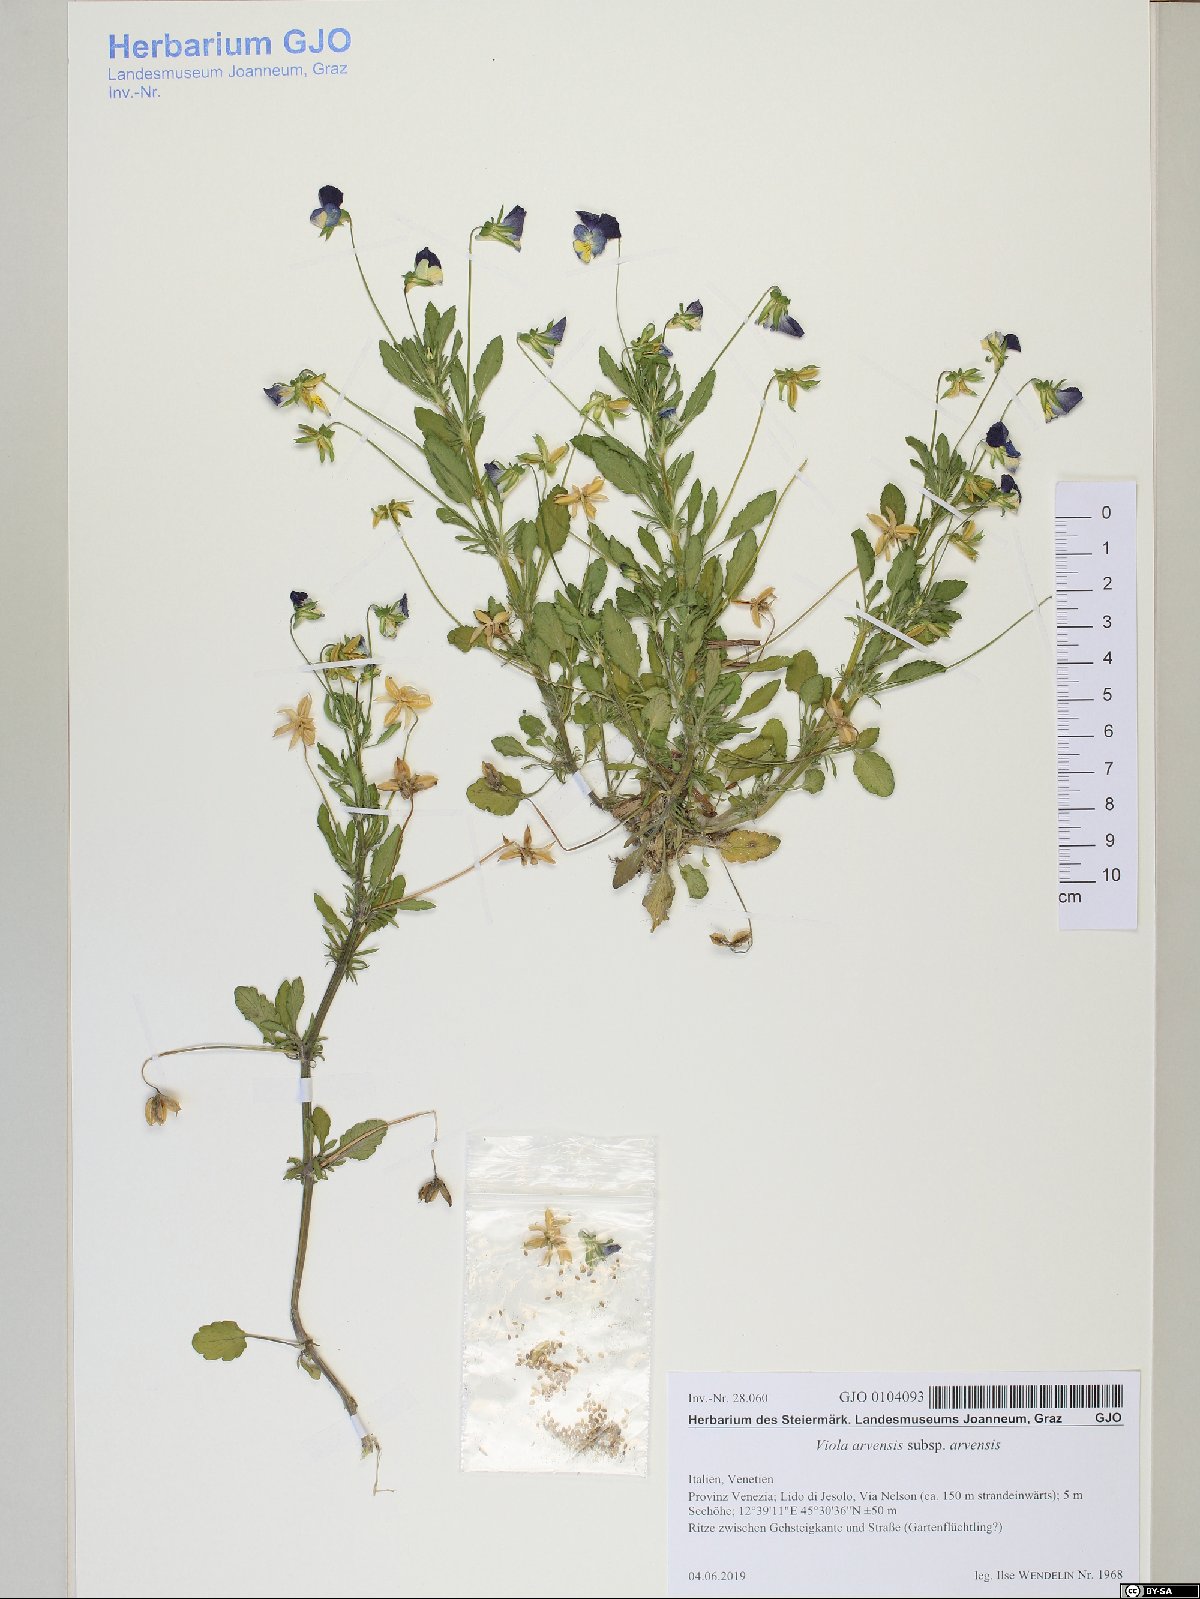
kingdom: Plantae
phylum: Tracheophyta
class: Magnoliopsida
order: Malpighiales
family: Violaceae
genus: Viola
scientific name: Viola arvensis
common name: Field pansy
